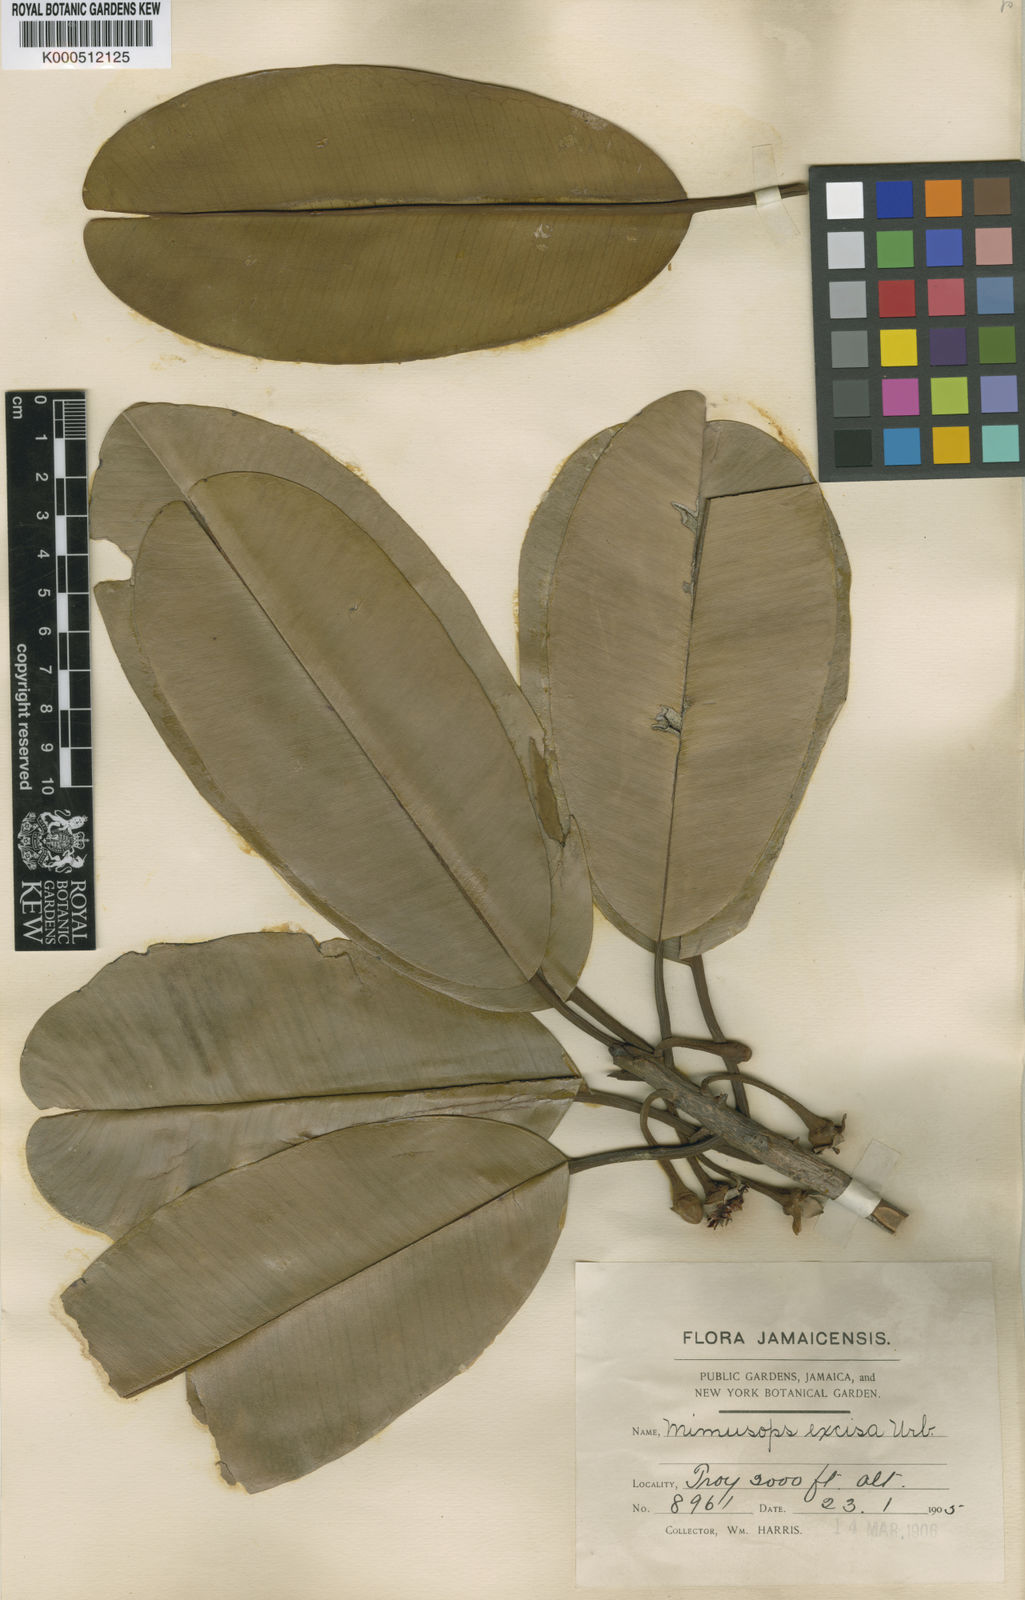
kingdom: Plantae
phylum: Tracheophyta
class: Magnoliopsida
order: Ericales
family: Sapotaceae
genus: Manilkara
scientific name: Manilkara excisa
